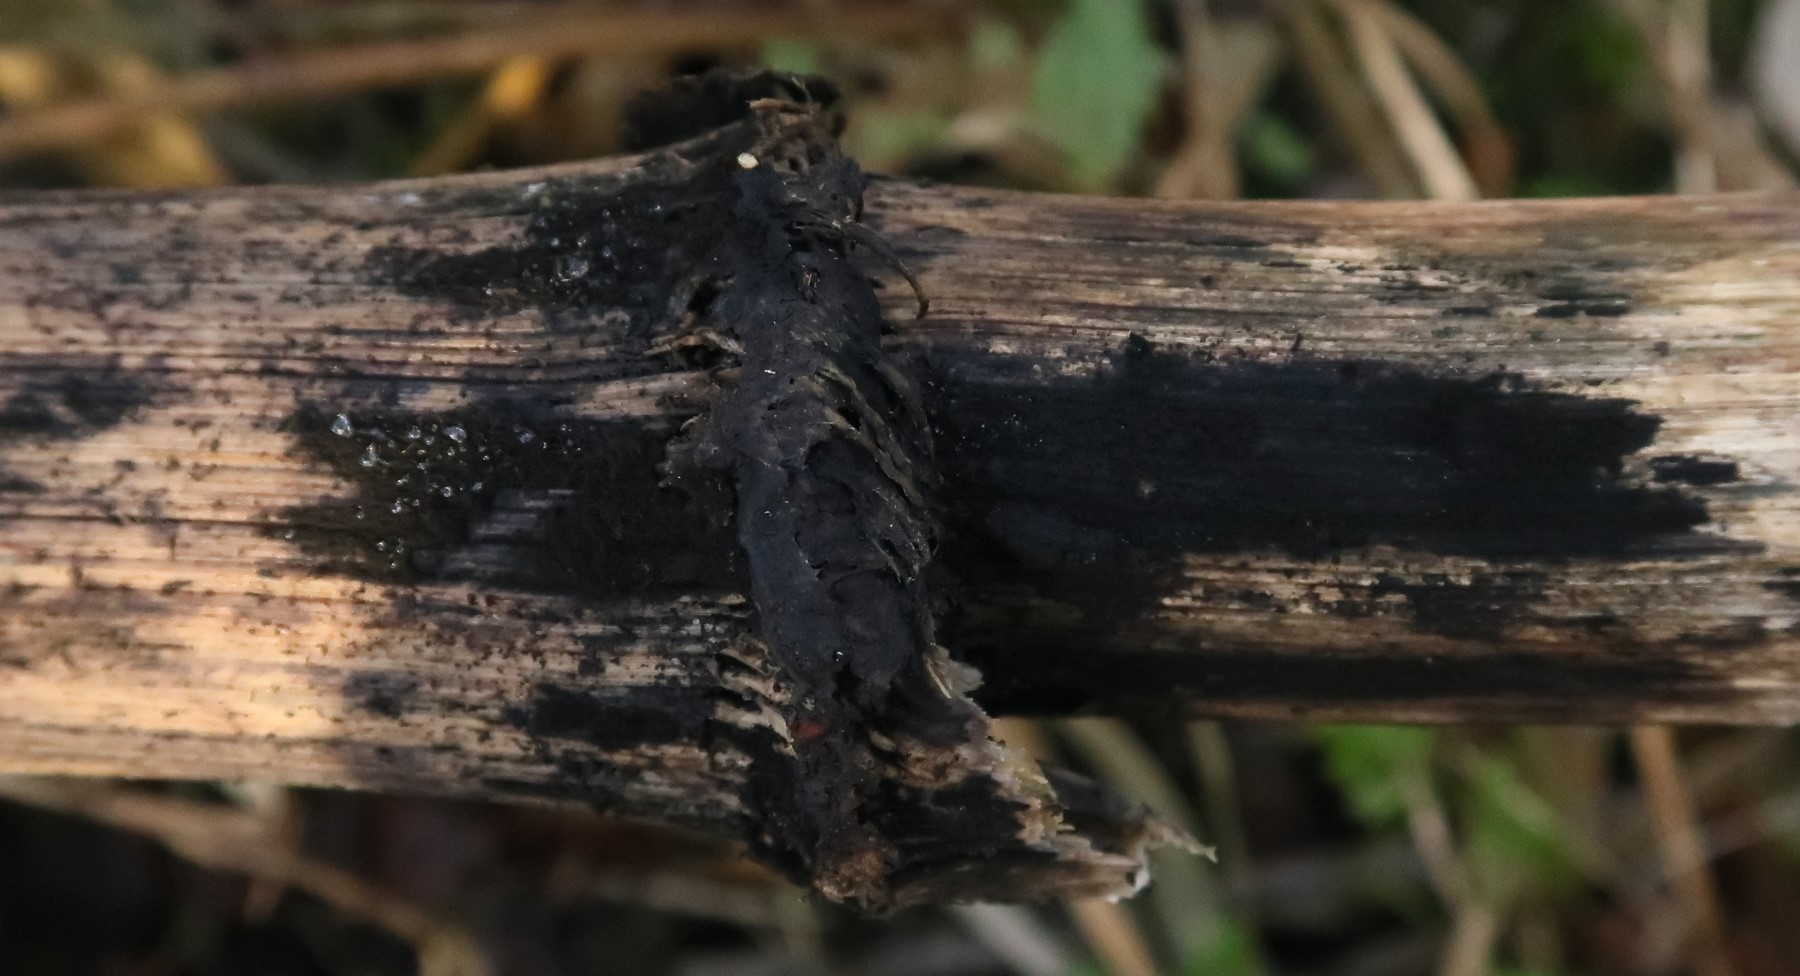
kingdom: Fungi
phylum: Ascomycota
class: Dothideomycetes
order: Pleosporales
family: Torulaceae
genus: Torula
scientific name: Torula herbarum
